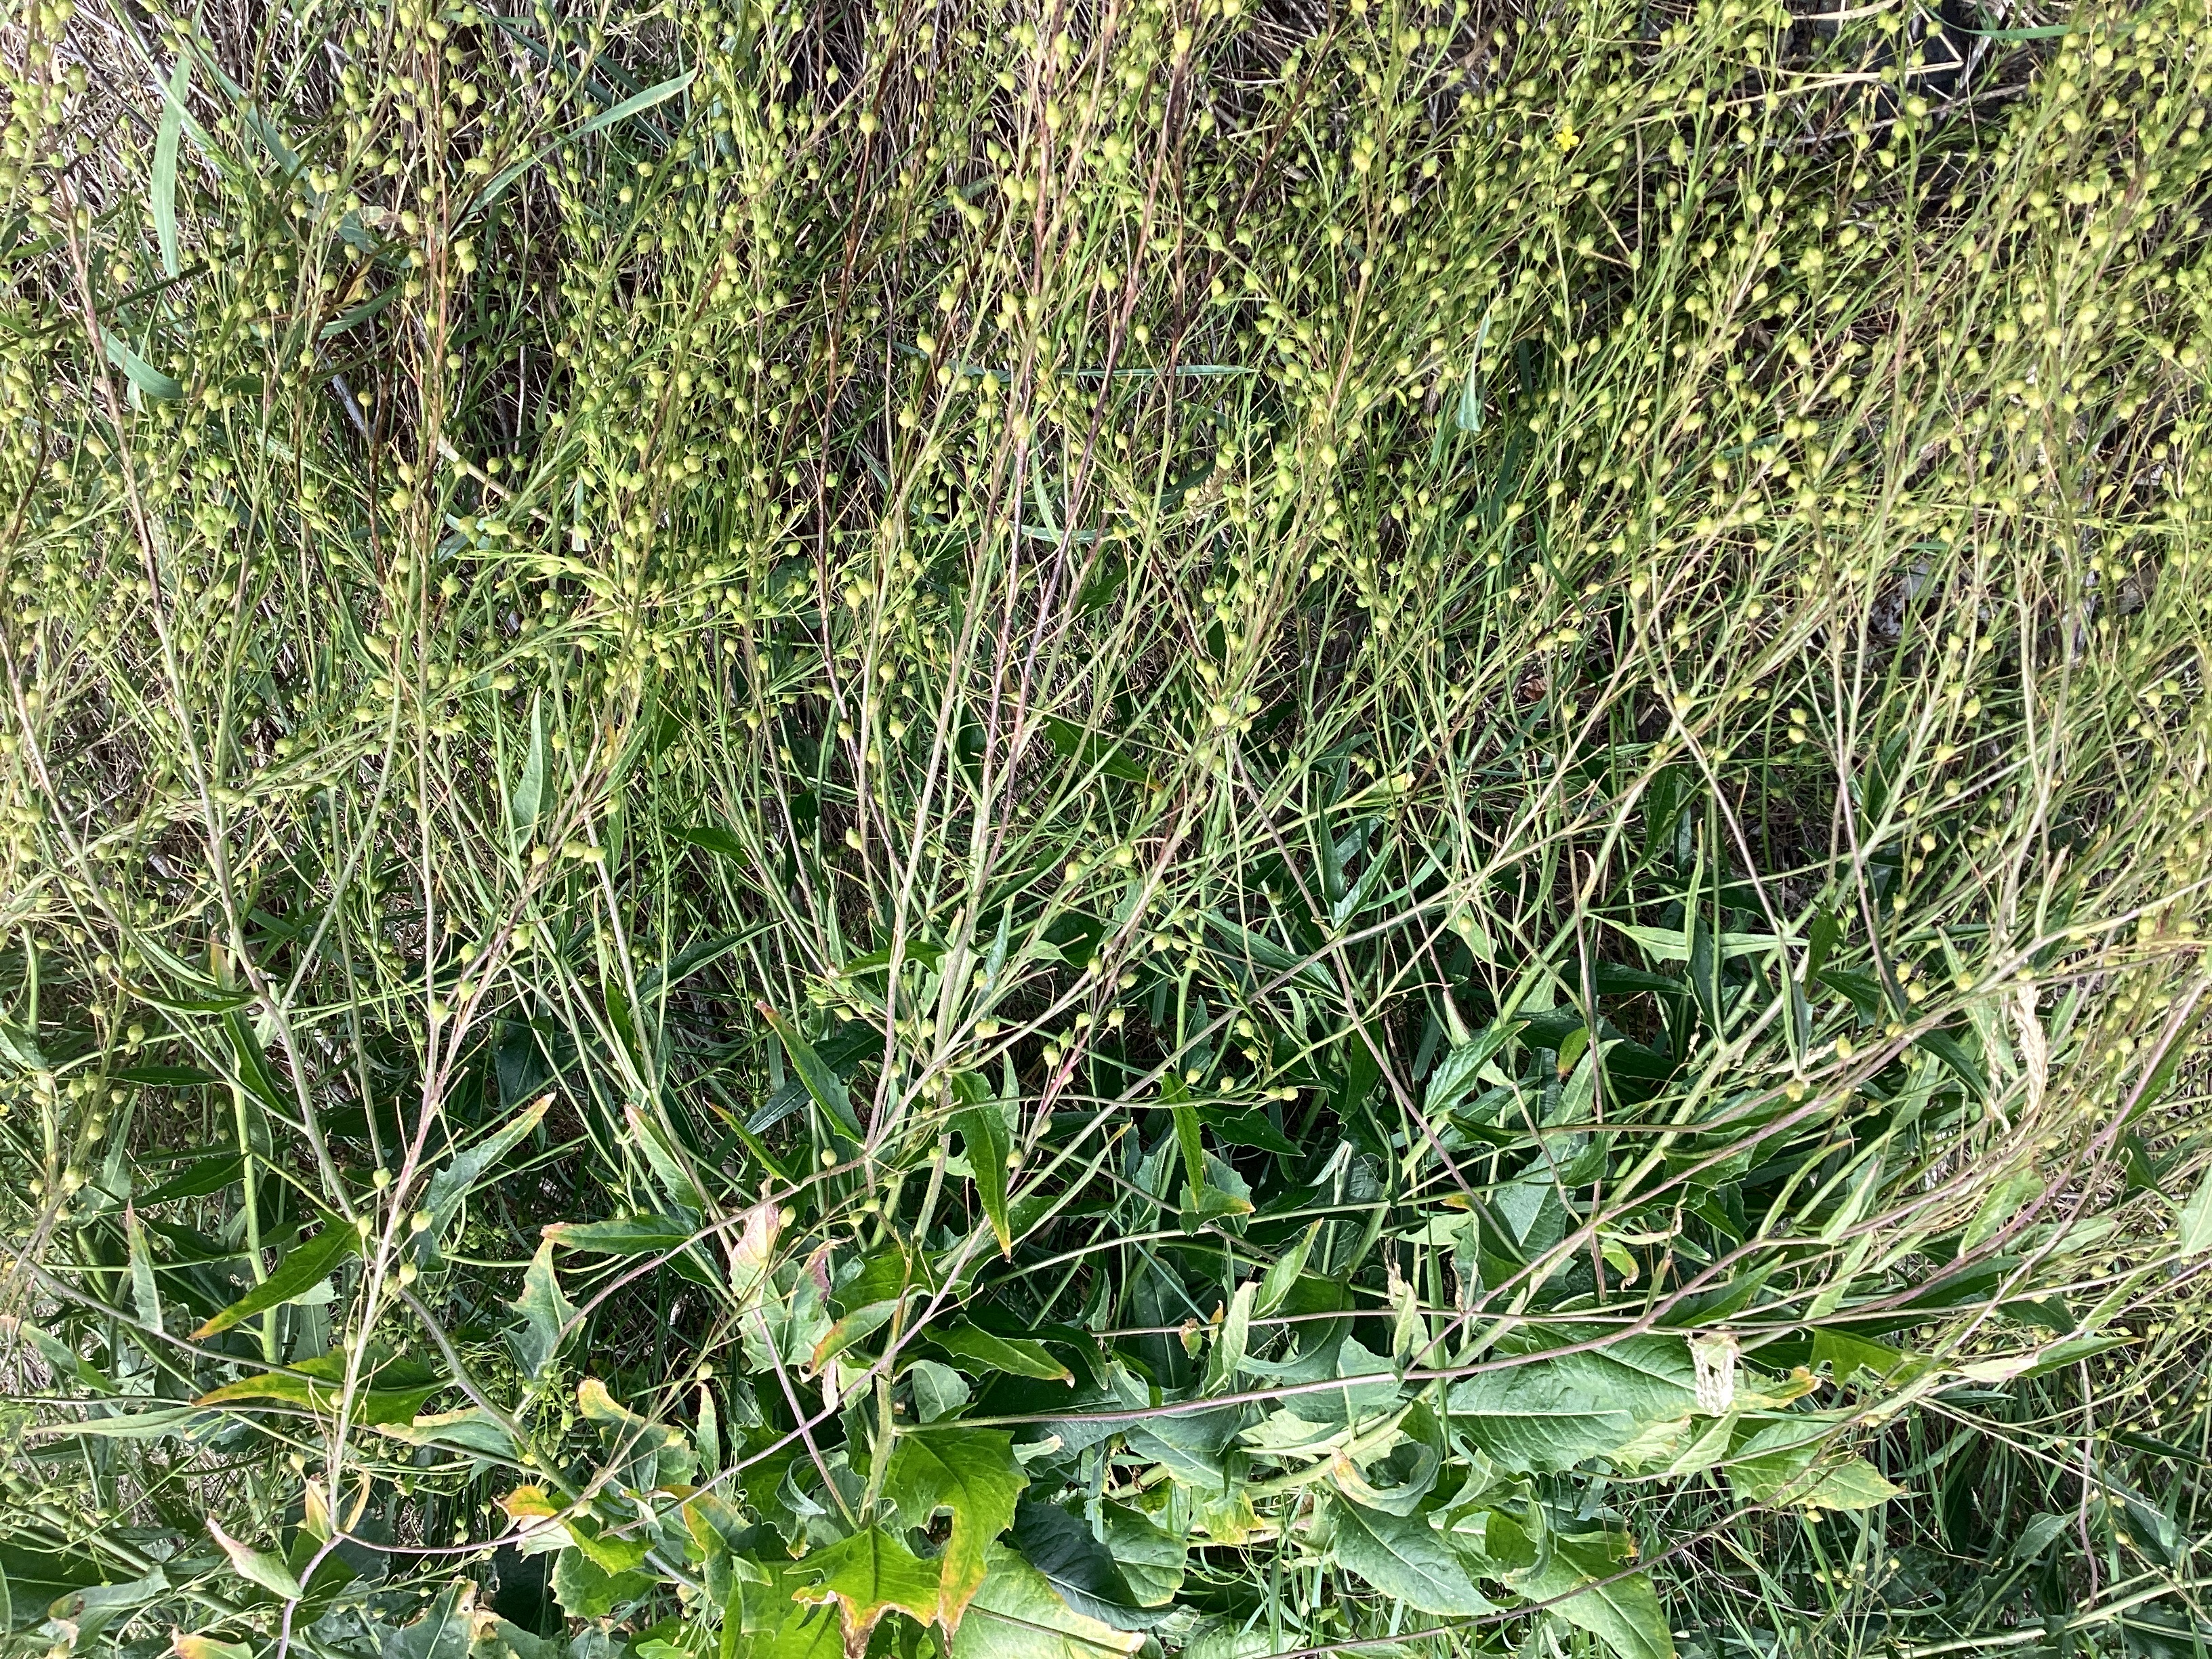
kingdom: Plantae
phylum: Tracheophyta
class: Magnoliopsida
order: Brassicales
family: Brassicaceae
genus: Bunias
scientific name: Bunias orientalis
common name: russekål
